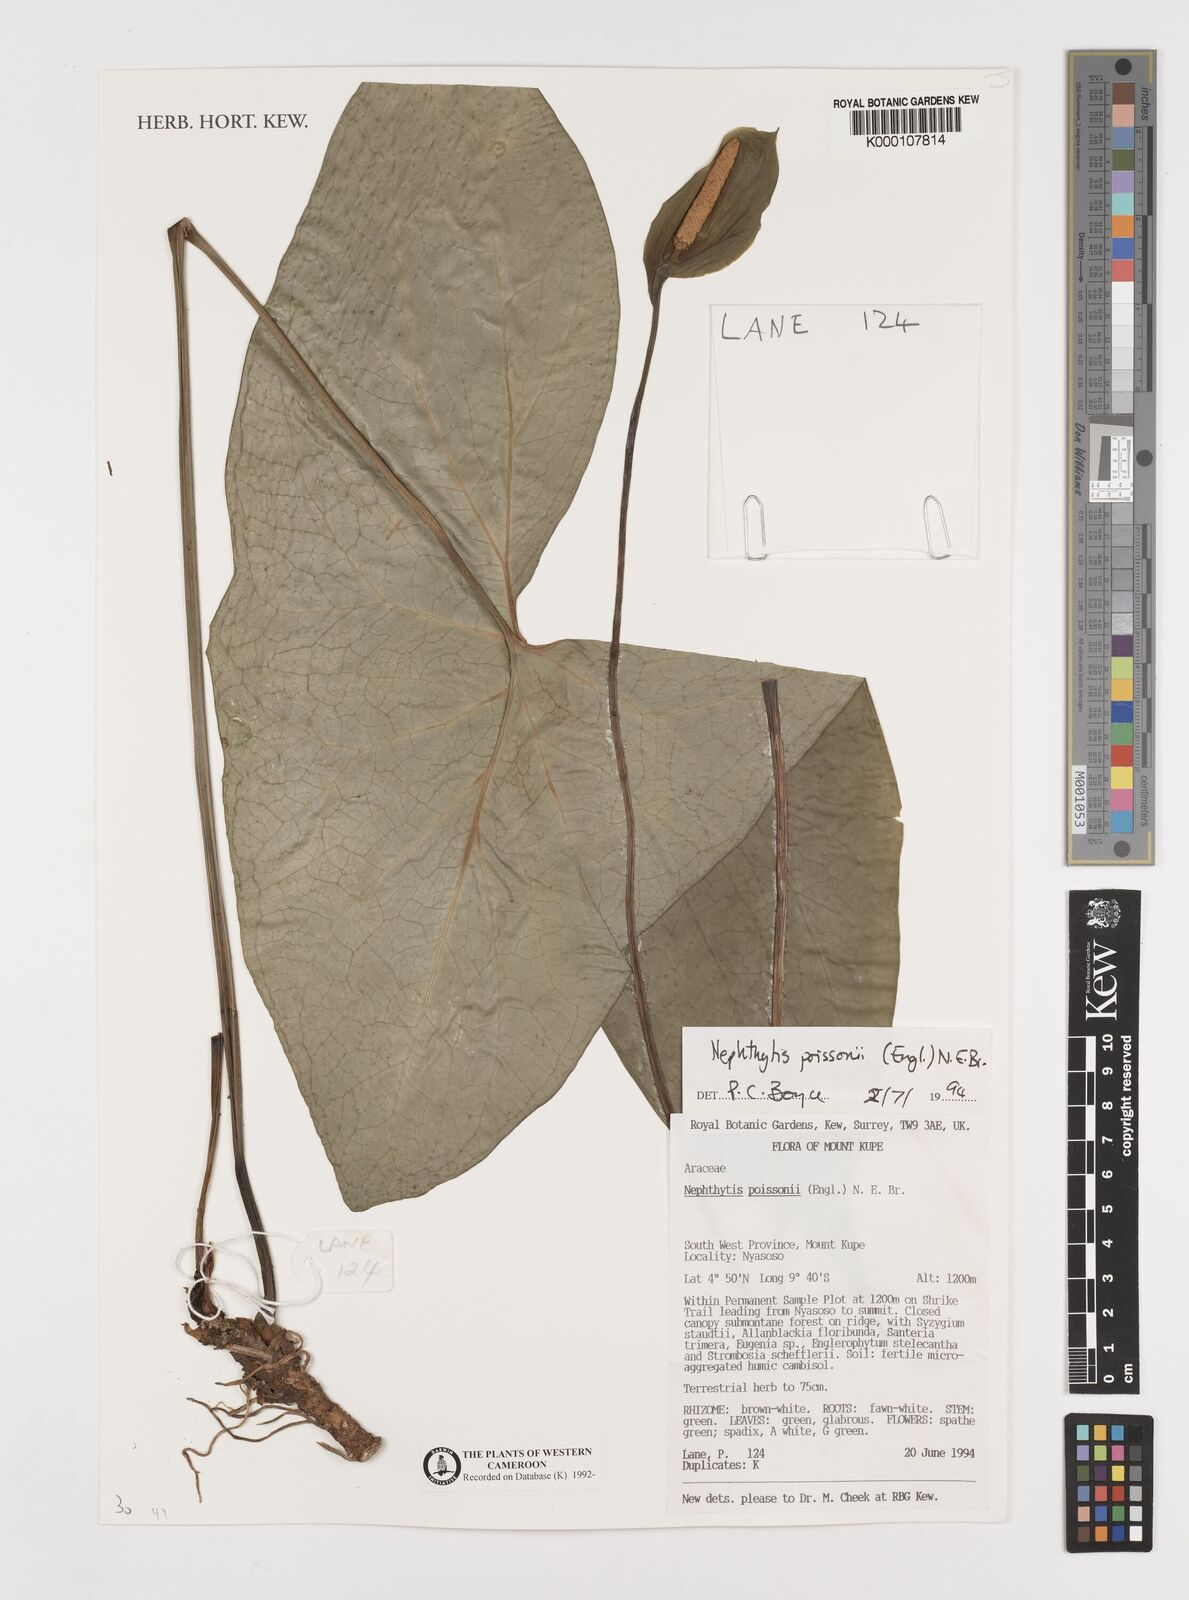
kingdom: Plantae
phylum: Tracheophyta
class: Liliopsida
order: Alismatales
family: Araceae
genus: Nephthytis
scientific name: Nephthytis poissonii
